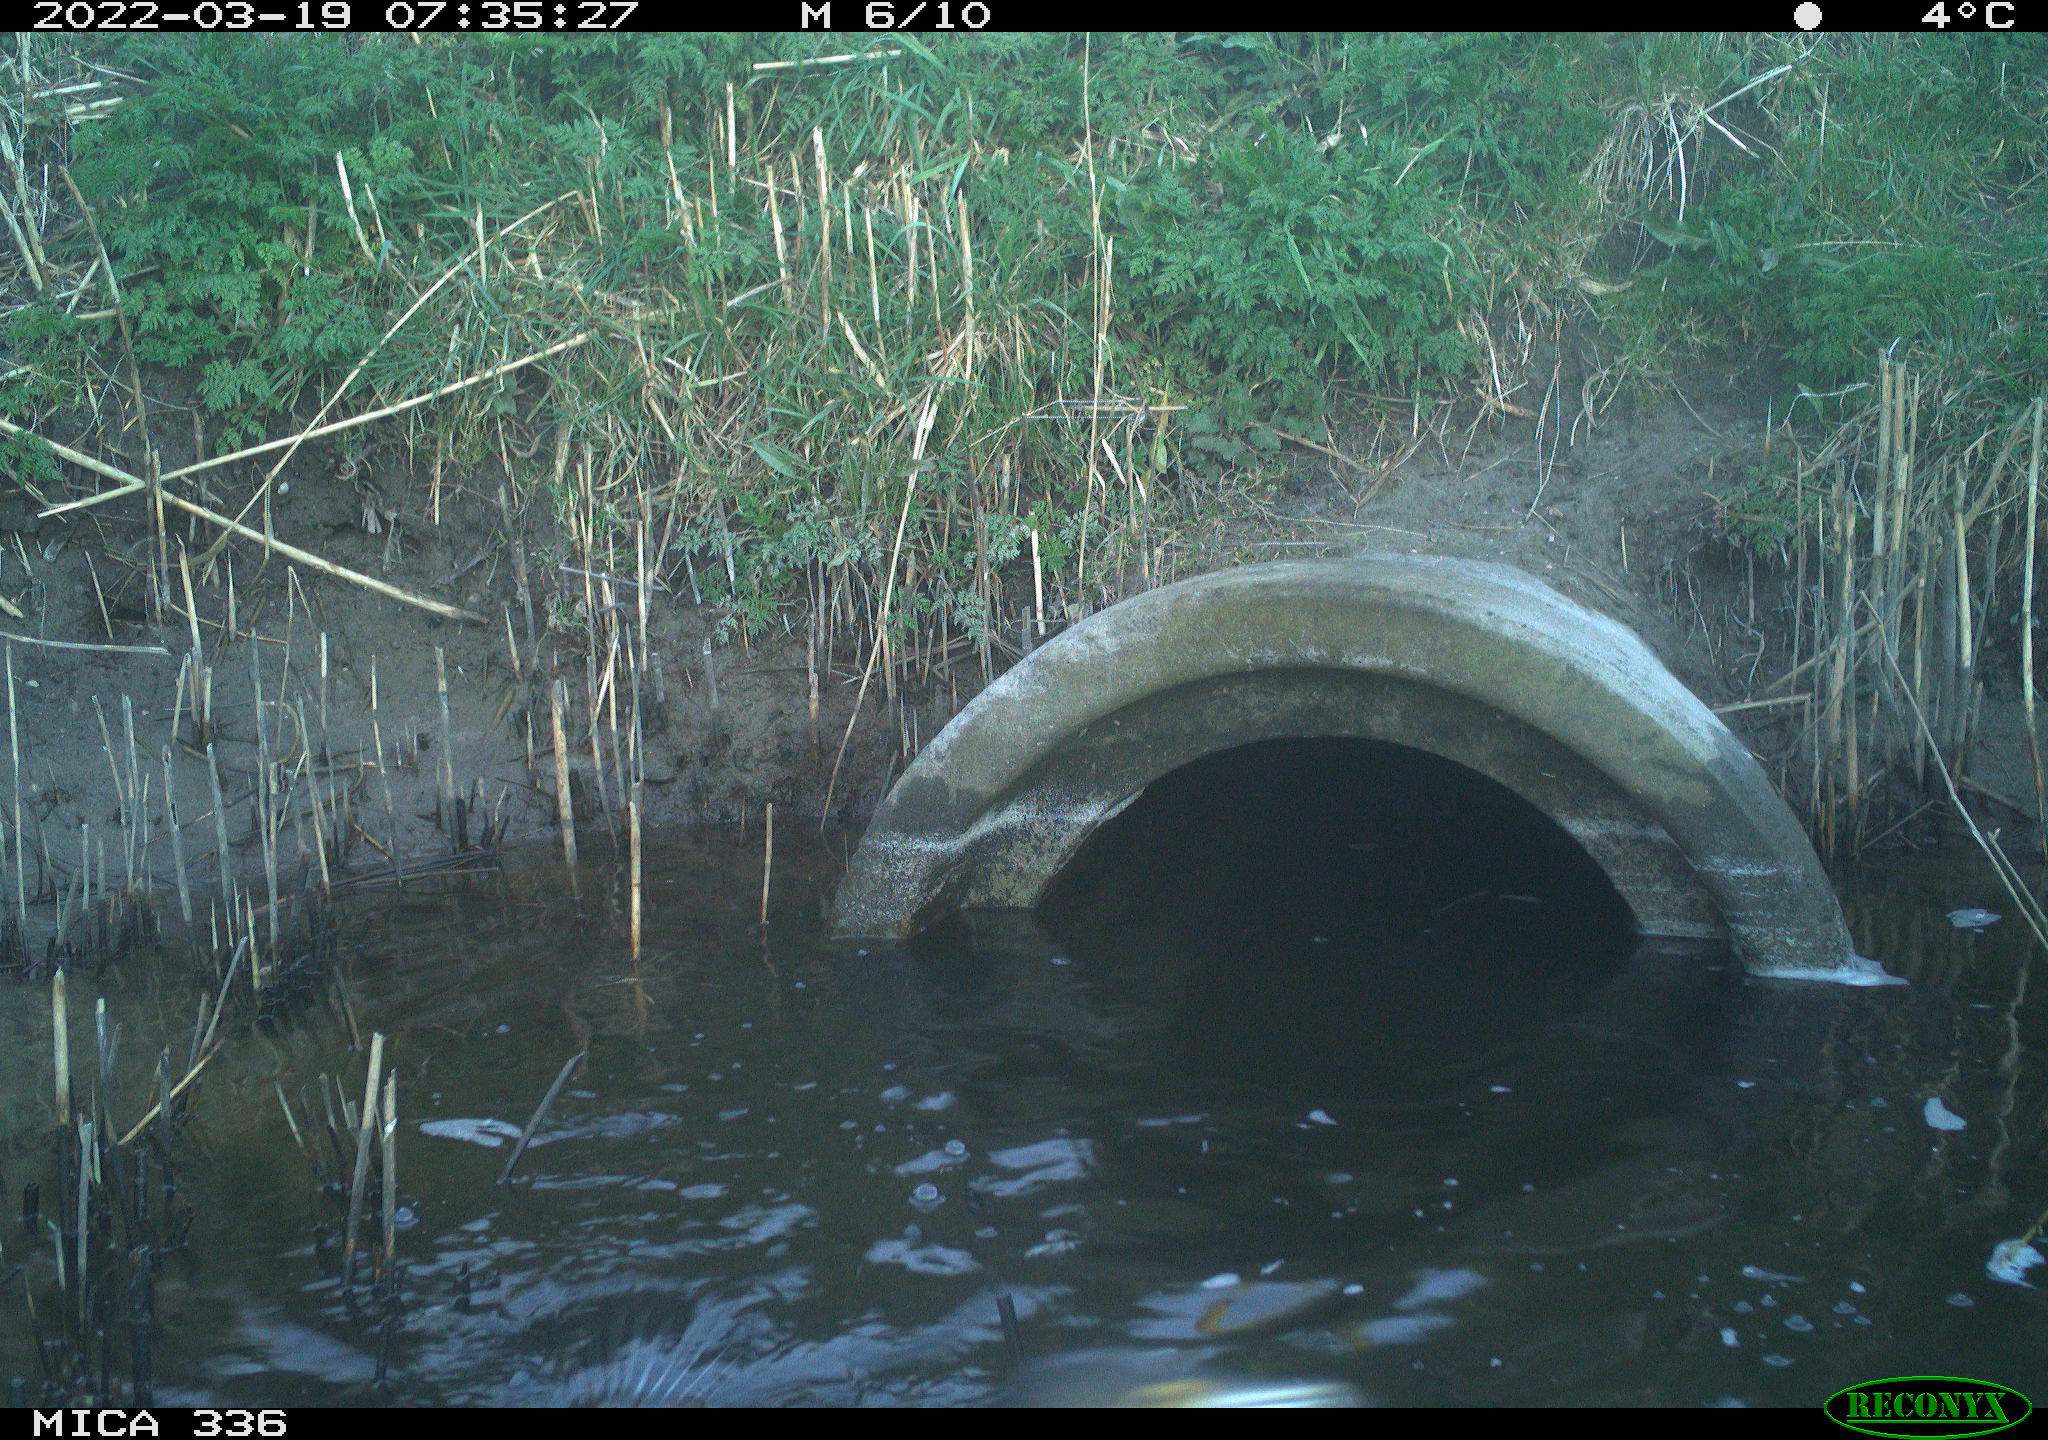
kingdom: Animalia
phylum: Chordata
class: Aves
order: Suliformes
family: Phalacrocoracidae
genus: Phalacrocorax
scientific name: Phalacrocorax carbo
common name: Great cormorant
